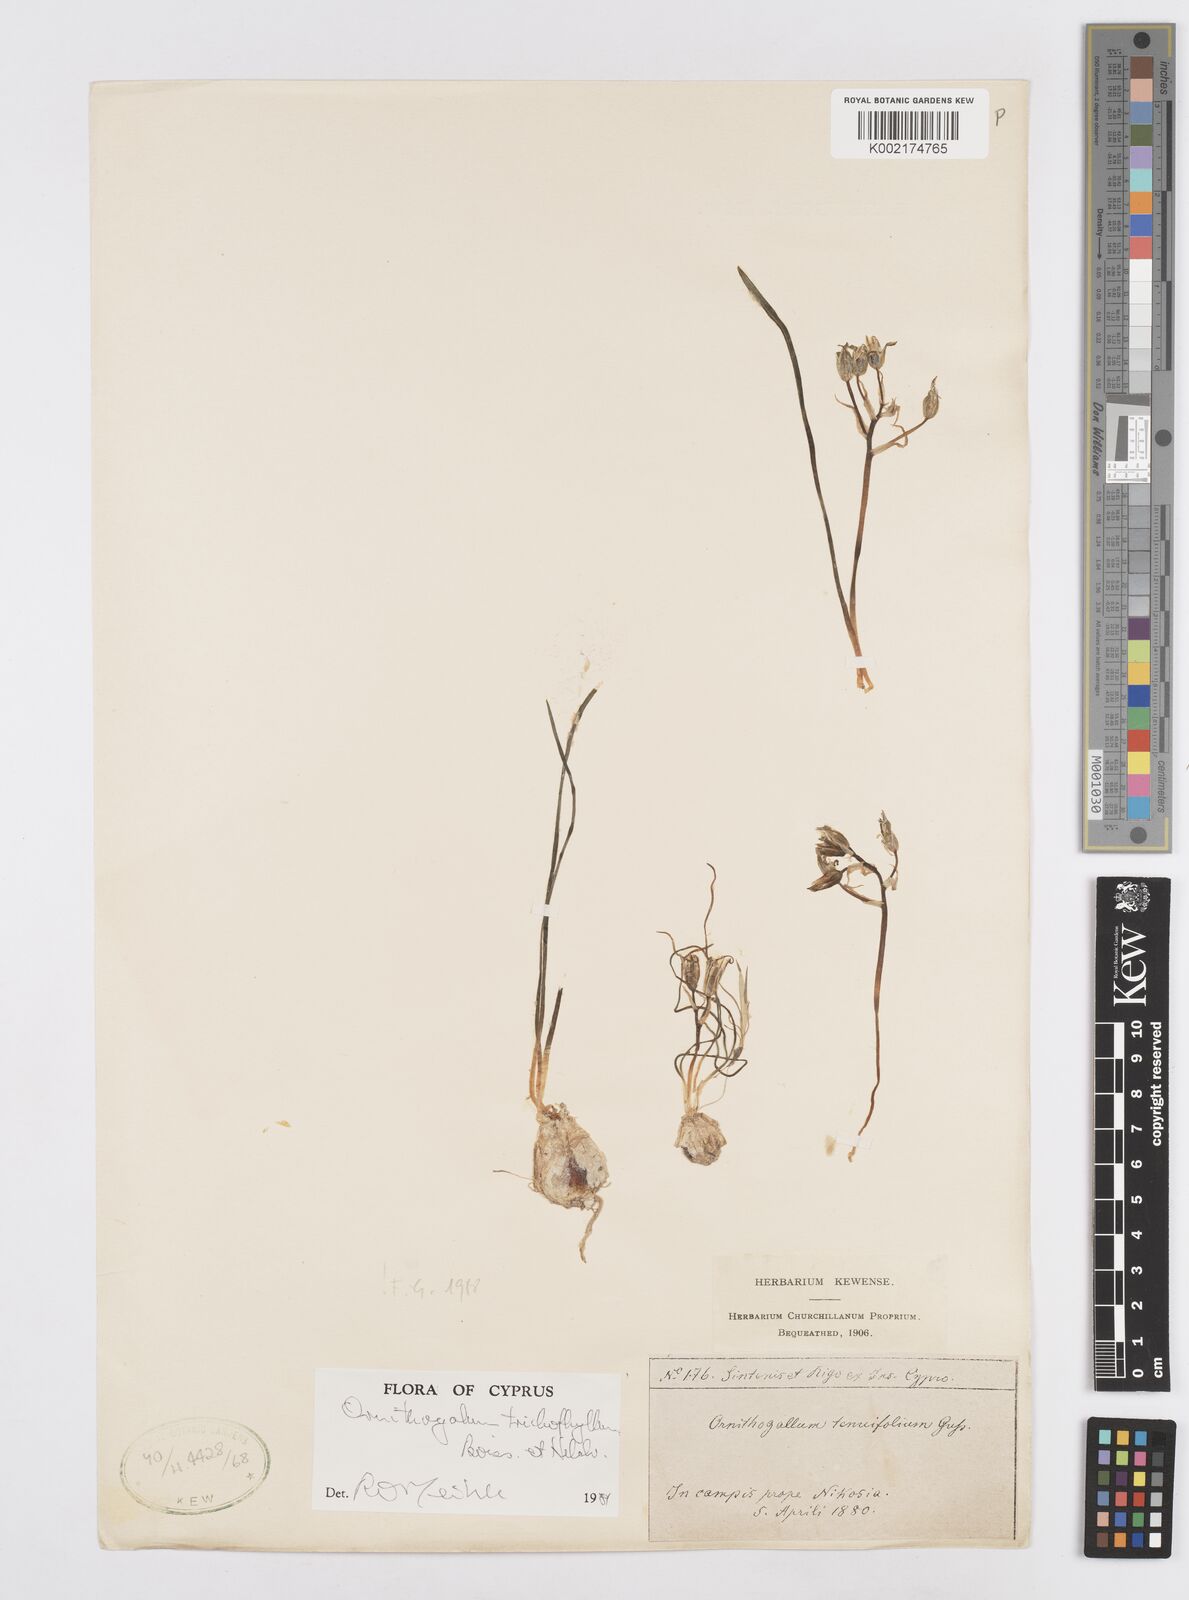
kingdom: Plantae
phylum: Tracheophyta
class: Liliopsida
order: Asparagales
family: Asparagaceae
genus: Ornithogalum
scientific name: Ornithogalum trichophyllum
